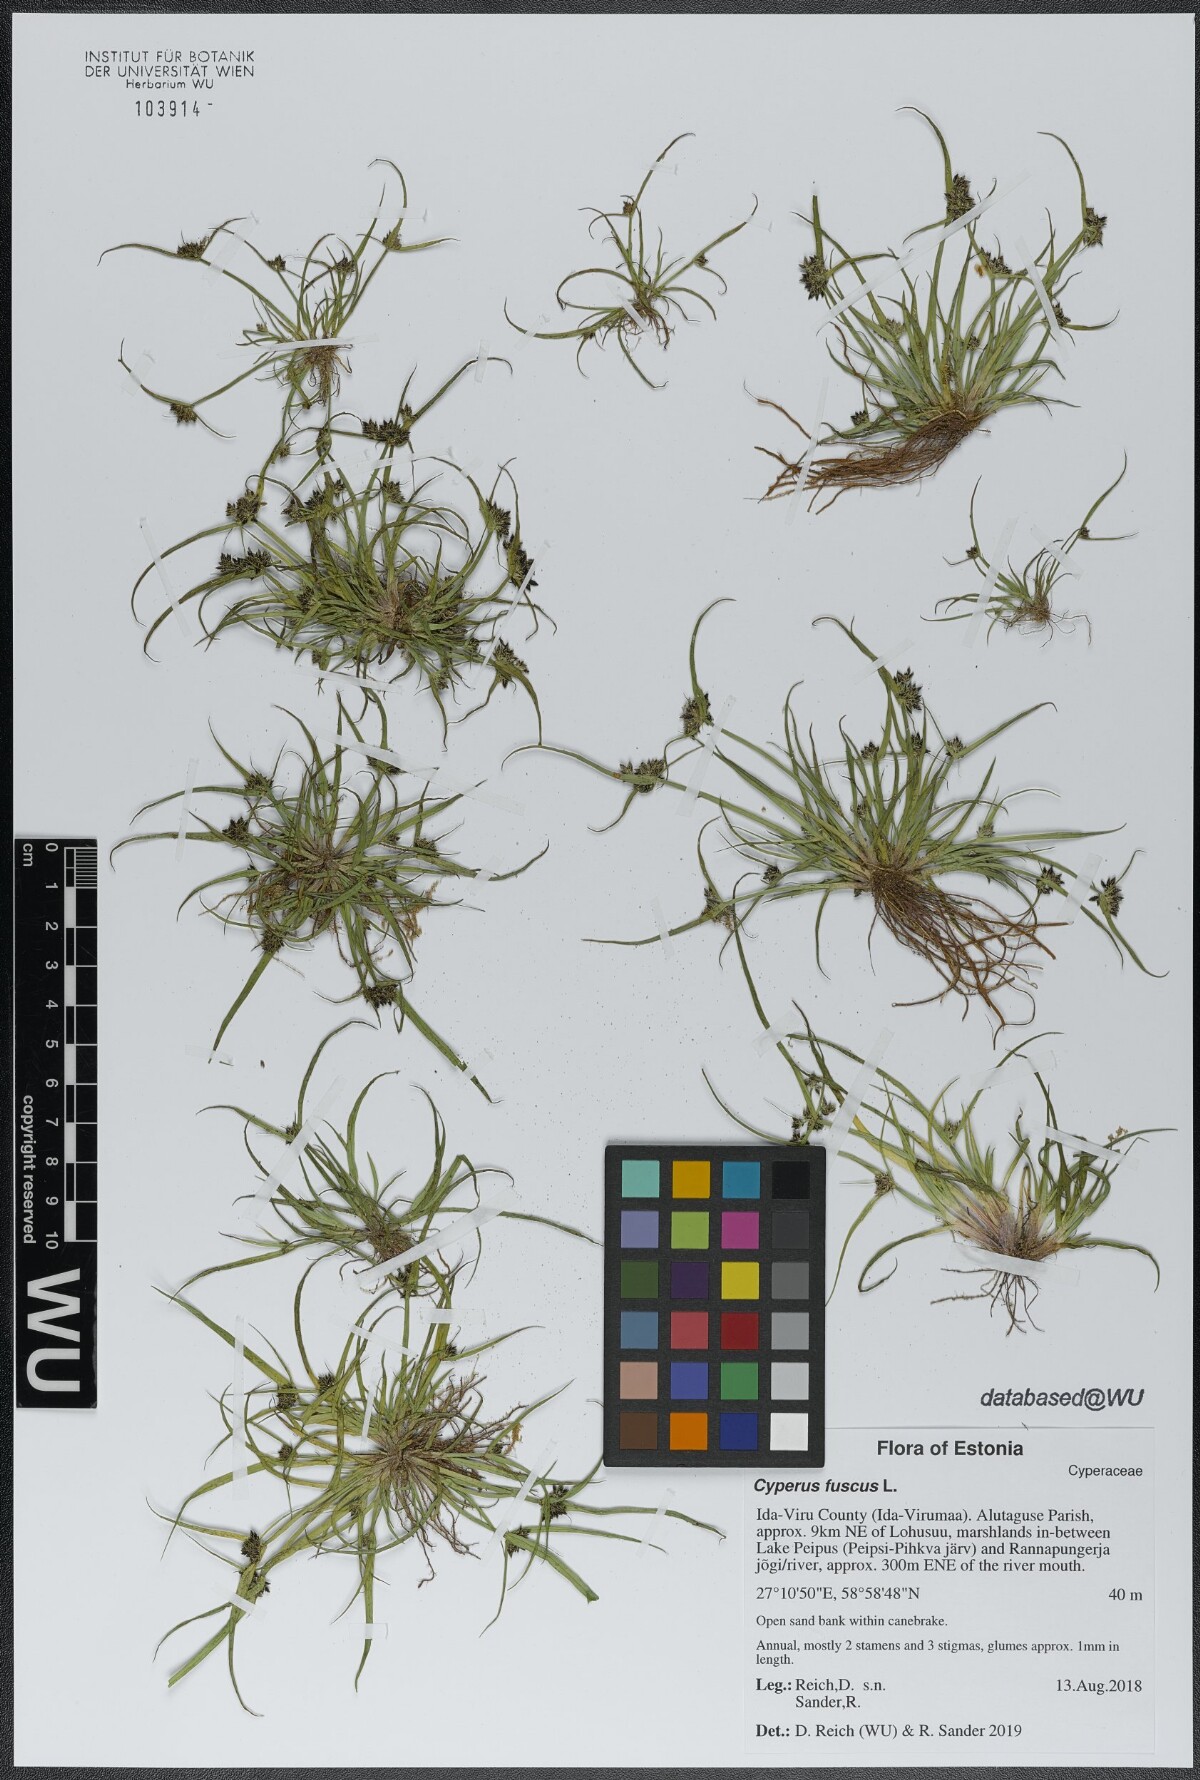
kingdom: Plantae
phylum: Tracheophyta
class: Liliopsida
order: Poales
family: Cyperaceae
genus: Cyperus
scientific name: Cyperus fuscus
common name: Brown galingale
